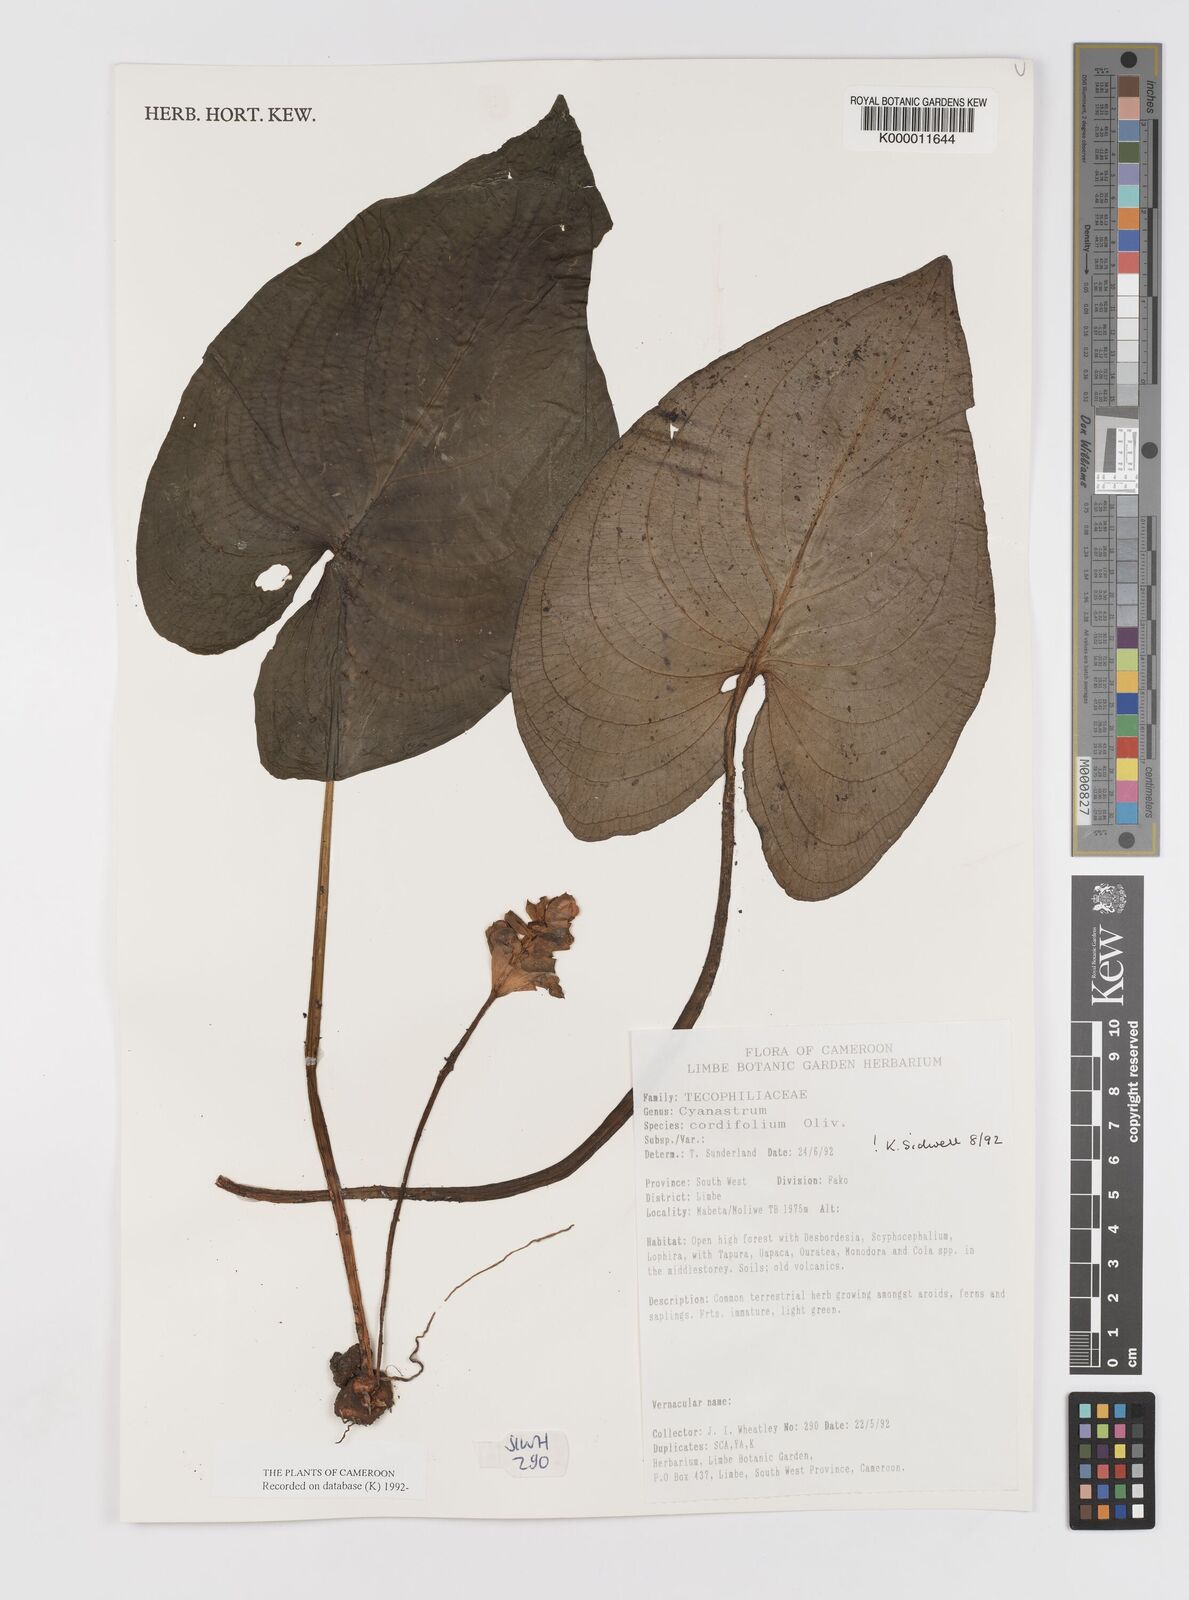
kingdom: Plantae
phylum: Tracheophyta
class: Liliopsida
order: Asparagales
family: Tecophilaeaceae
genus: Cyanastrum
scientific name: Cyanastrum cordifolium
